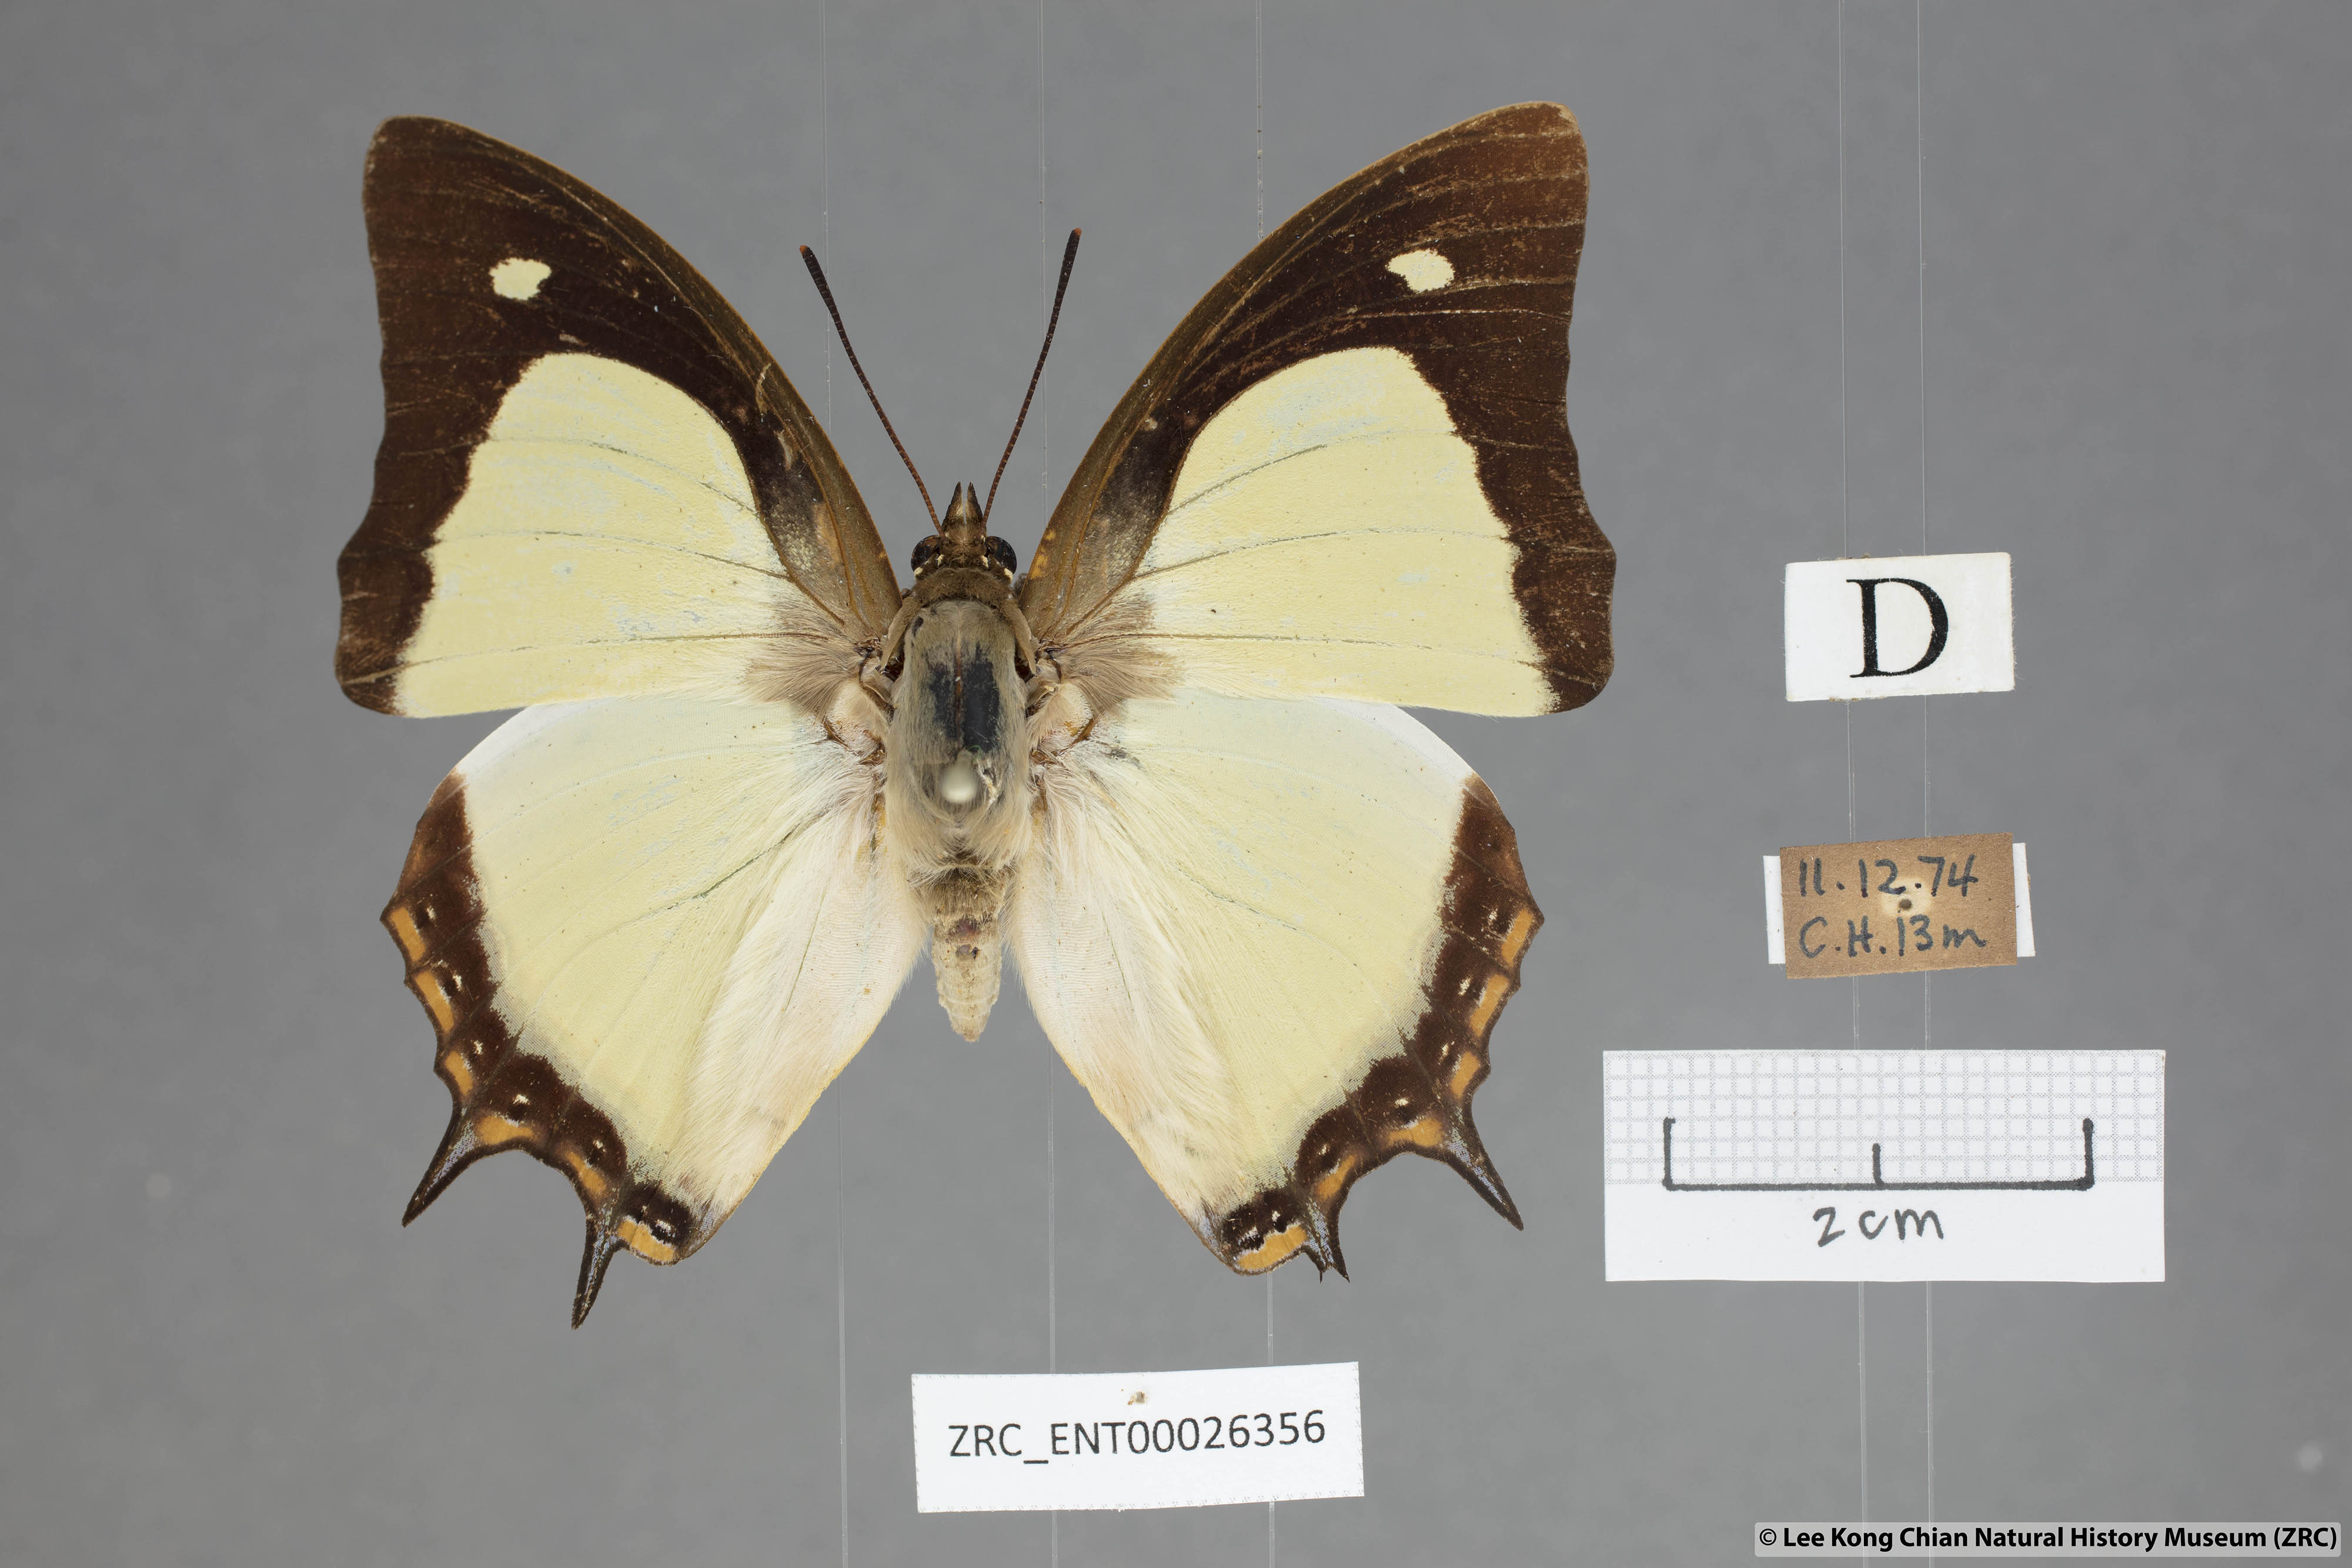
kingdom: Animalia
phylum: Arthropoda
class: Insecta
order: Lepidoptera
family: Nymphalidae
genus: Polyura
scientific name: Polyura jalysus
